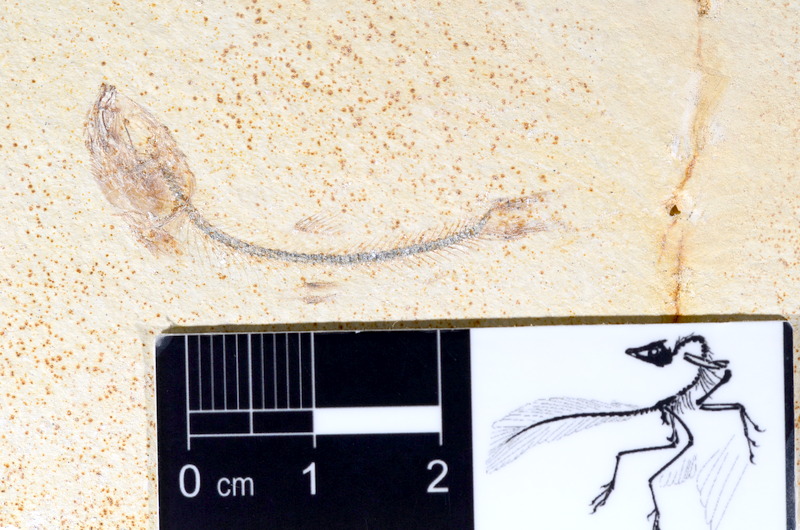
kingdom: Animalia
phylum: Chordata
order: Salmoniformes
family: Orthogonikleithridae
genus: Orthogonikleithrus
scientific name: Orthogonikleithrus hoelli
